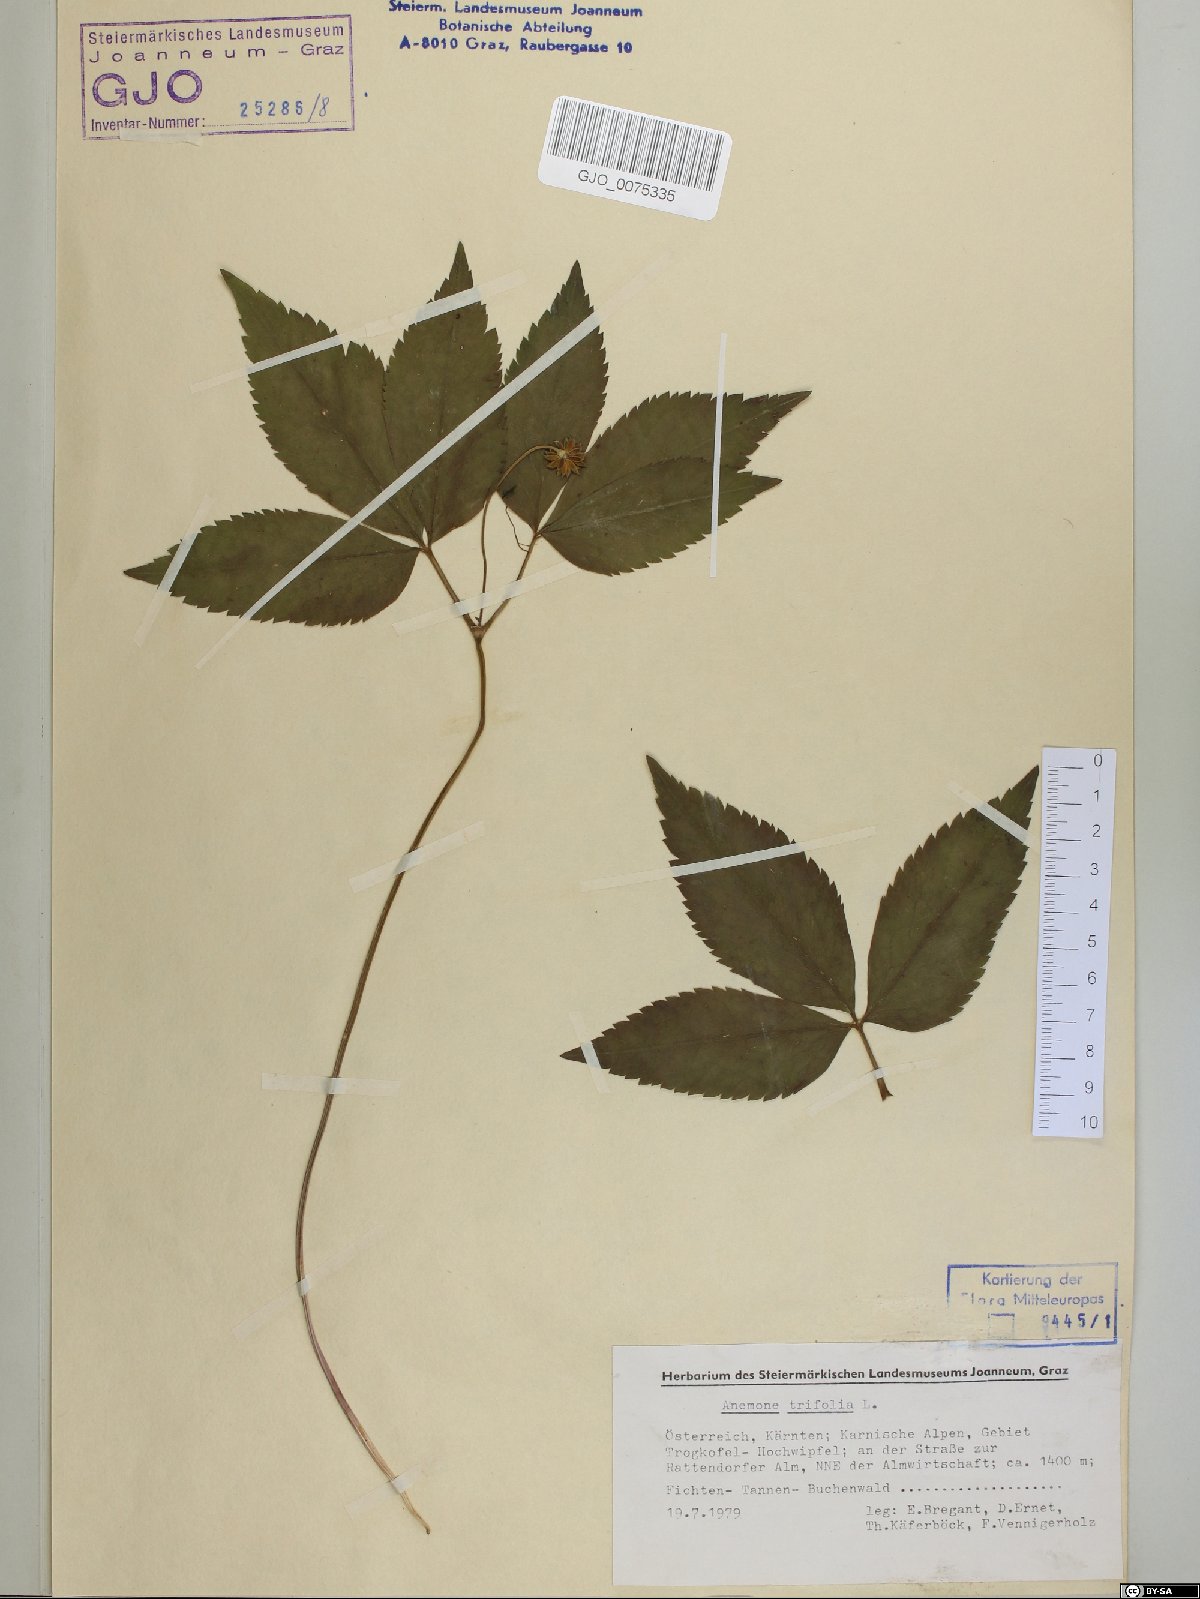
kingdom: Plantae
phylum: Tracheophyta
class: Magnoliopsida
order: Ranunculales
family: Ranunculaceae
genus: Anemone
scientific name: Anemone trifolia
